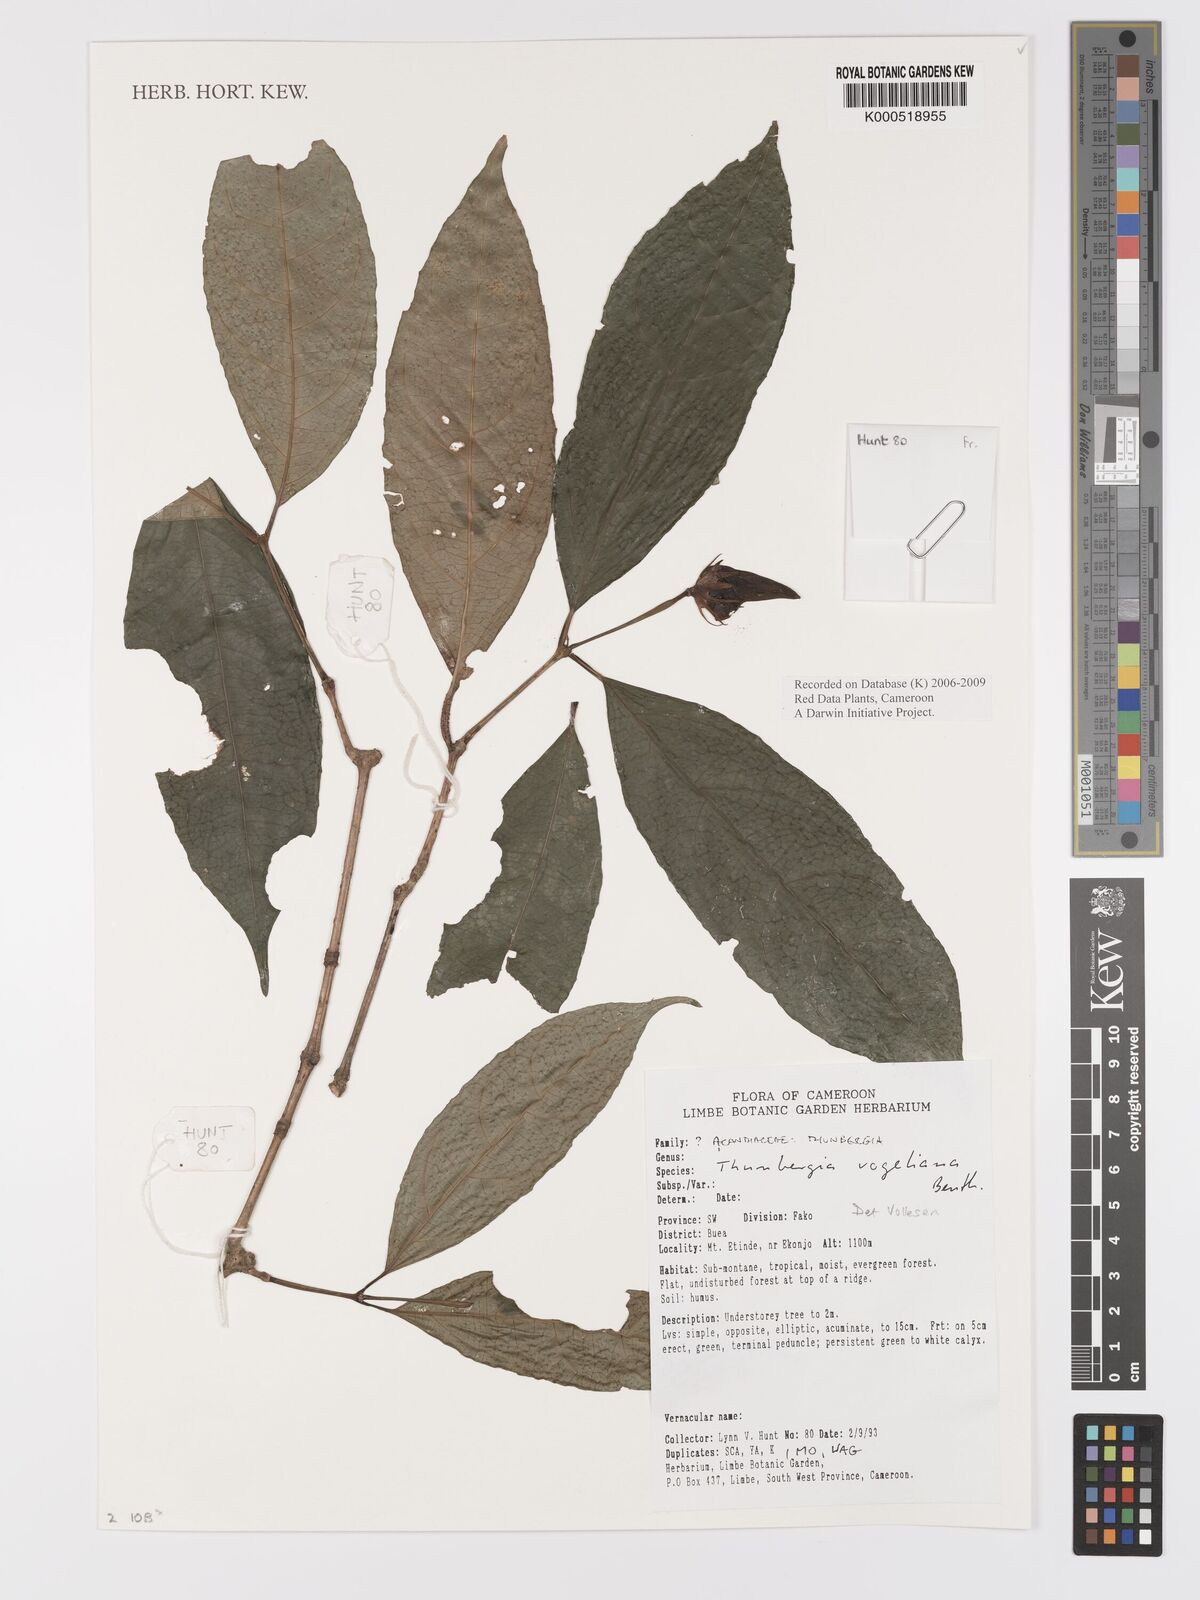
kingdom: Plantae
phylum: Tracheophyta
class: Magnoliopsida
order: Lamiales
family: Acanthaceae
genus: Thunbergia
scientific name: Thunbergia vogeliana
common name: Acanthaceae
